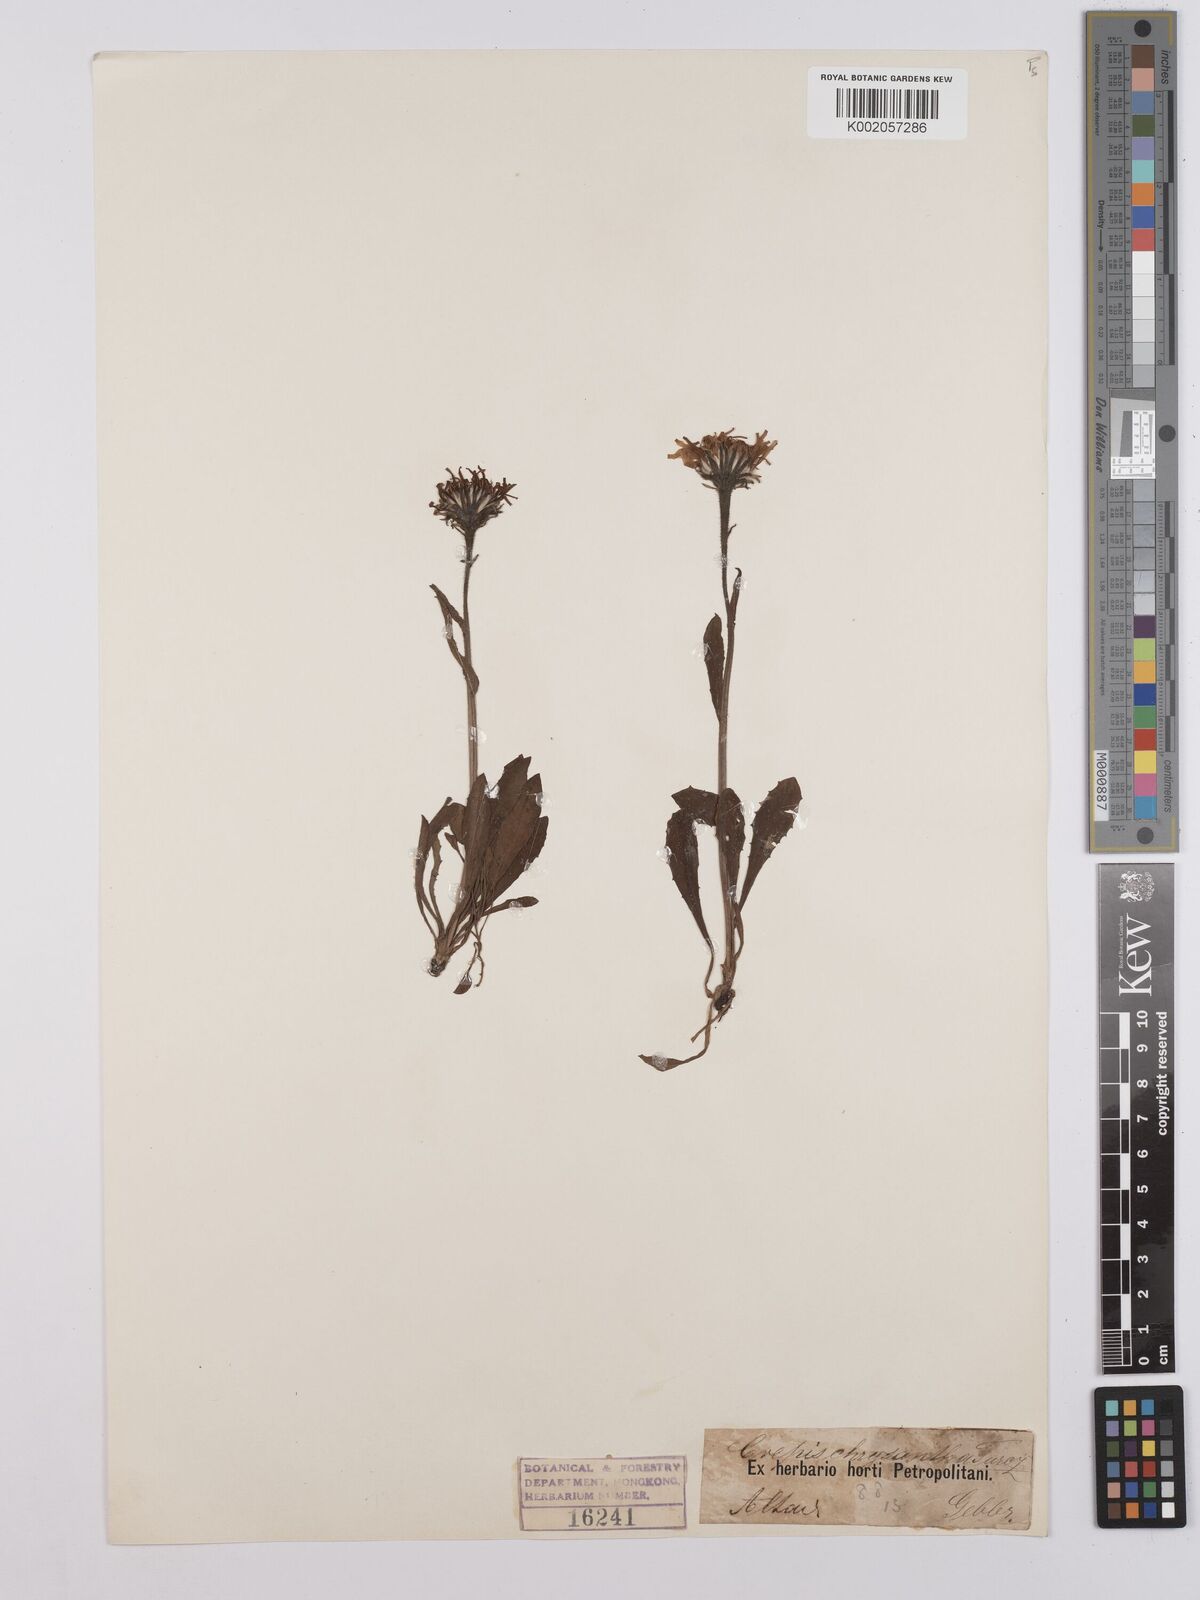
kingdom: Plantae
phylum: Tracheophyta
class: Magnoliopsida
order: Asterales
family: Asteraceae
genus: Crepis
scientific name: Crepis chrysantha
